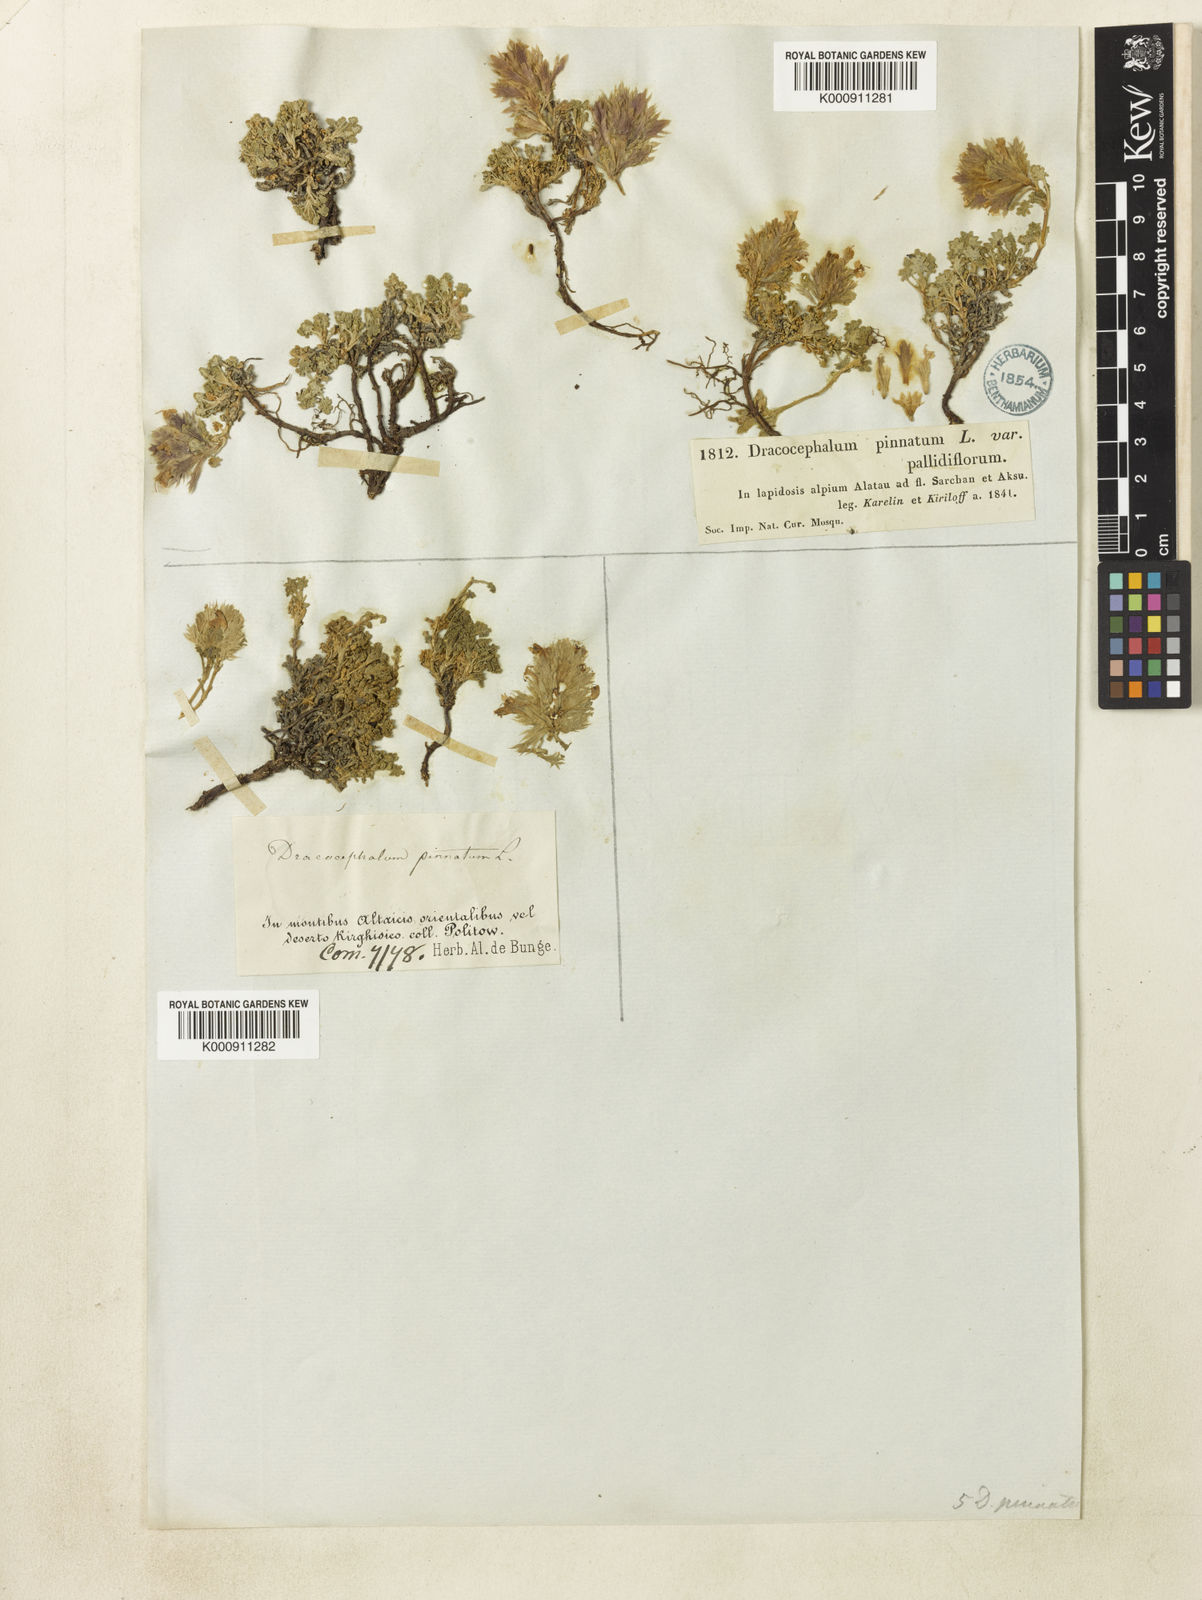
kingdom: Plantae
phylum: Tracheophyta
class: Magnoliopsida
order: Lamiales
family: Lamiaceae
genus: Dracocephalum
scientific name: Dracocephalum pinnatum
